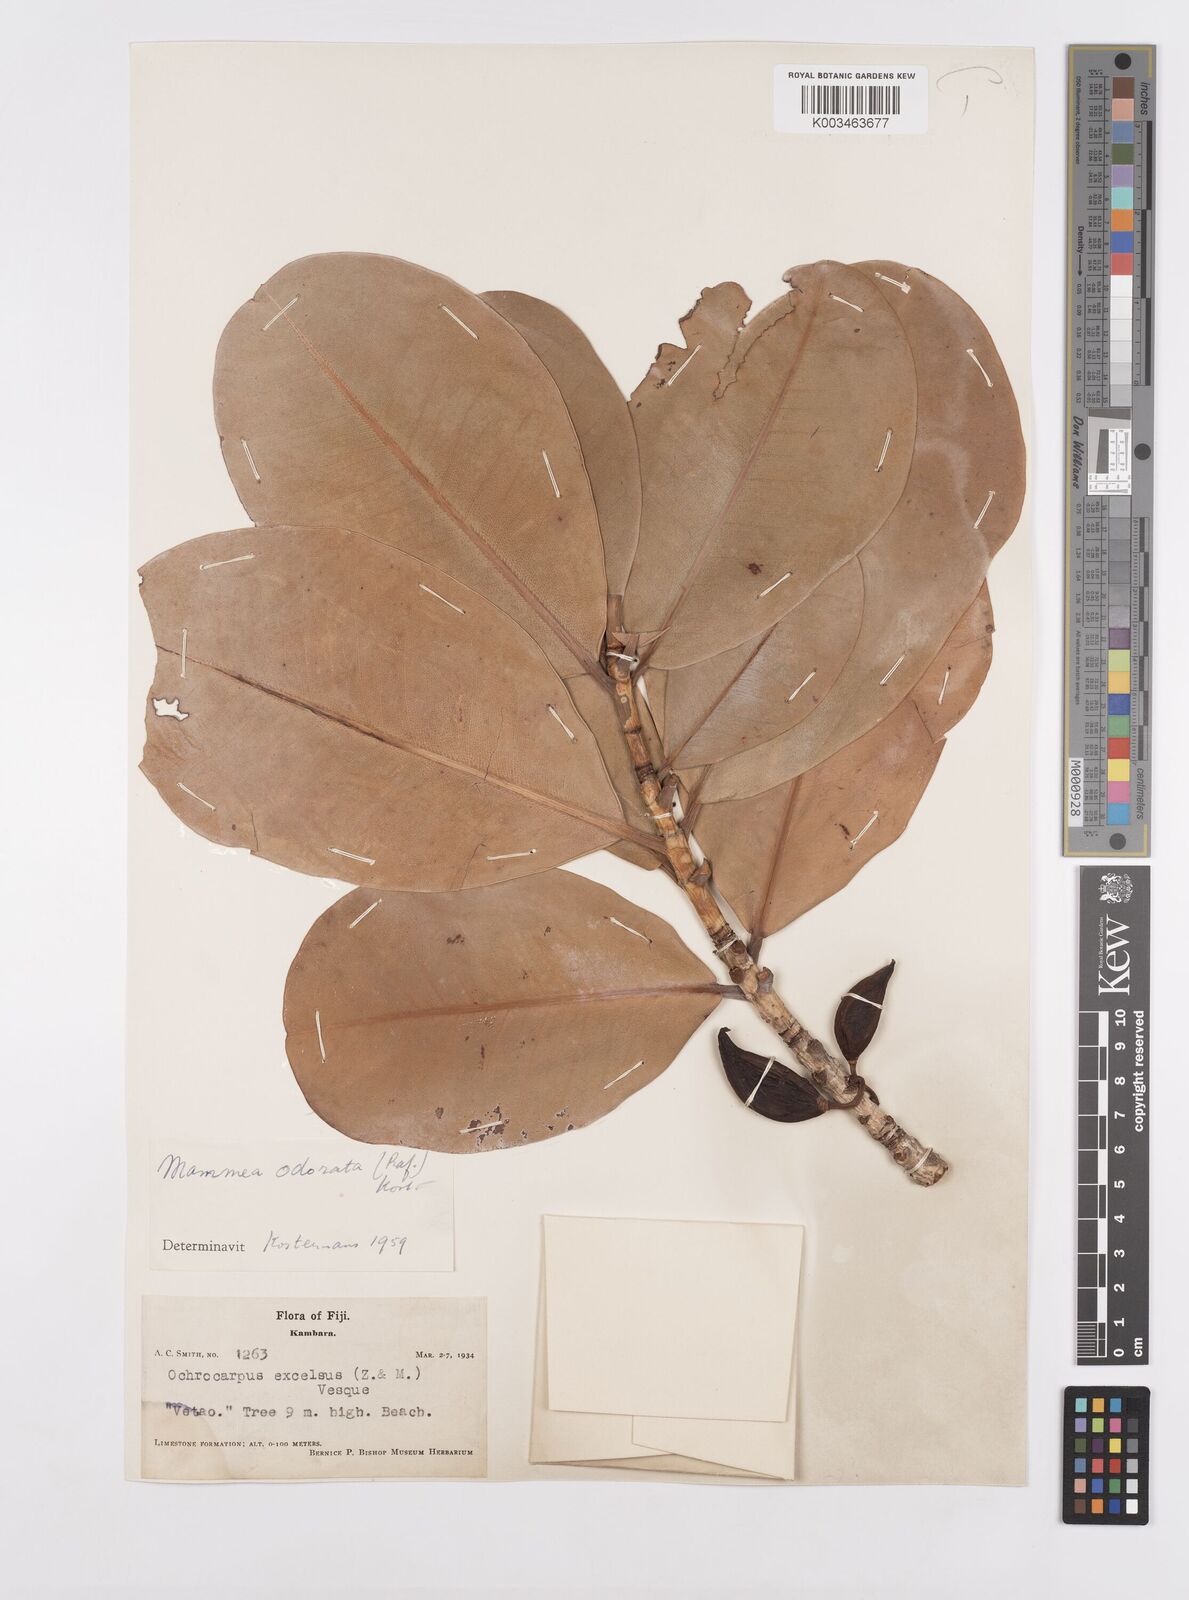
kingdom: Plantae
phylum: Tracheophyta
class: Magnoliopsida
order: Malpighiales
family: Calophyllaceae
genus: Mammea
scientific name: Mammea odorata
